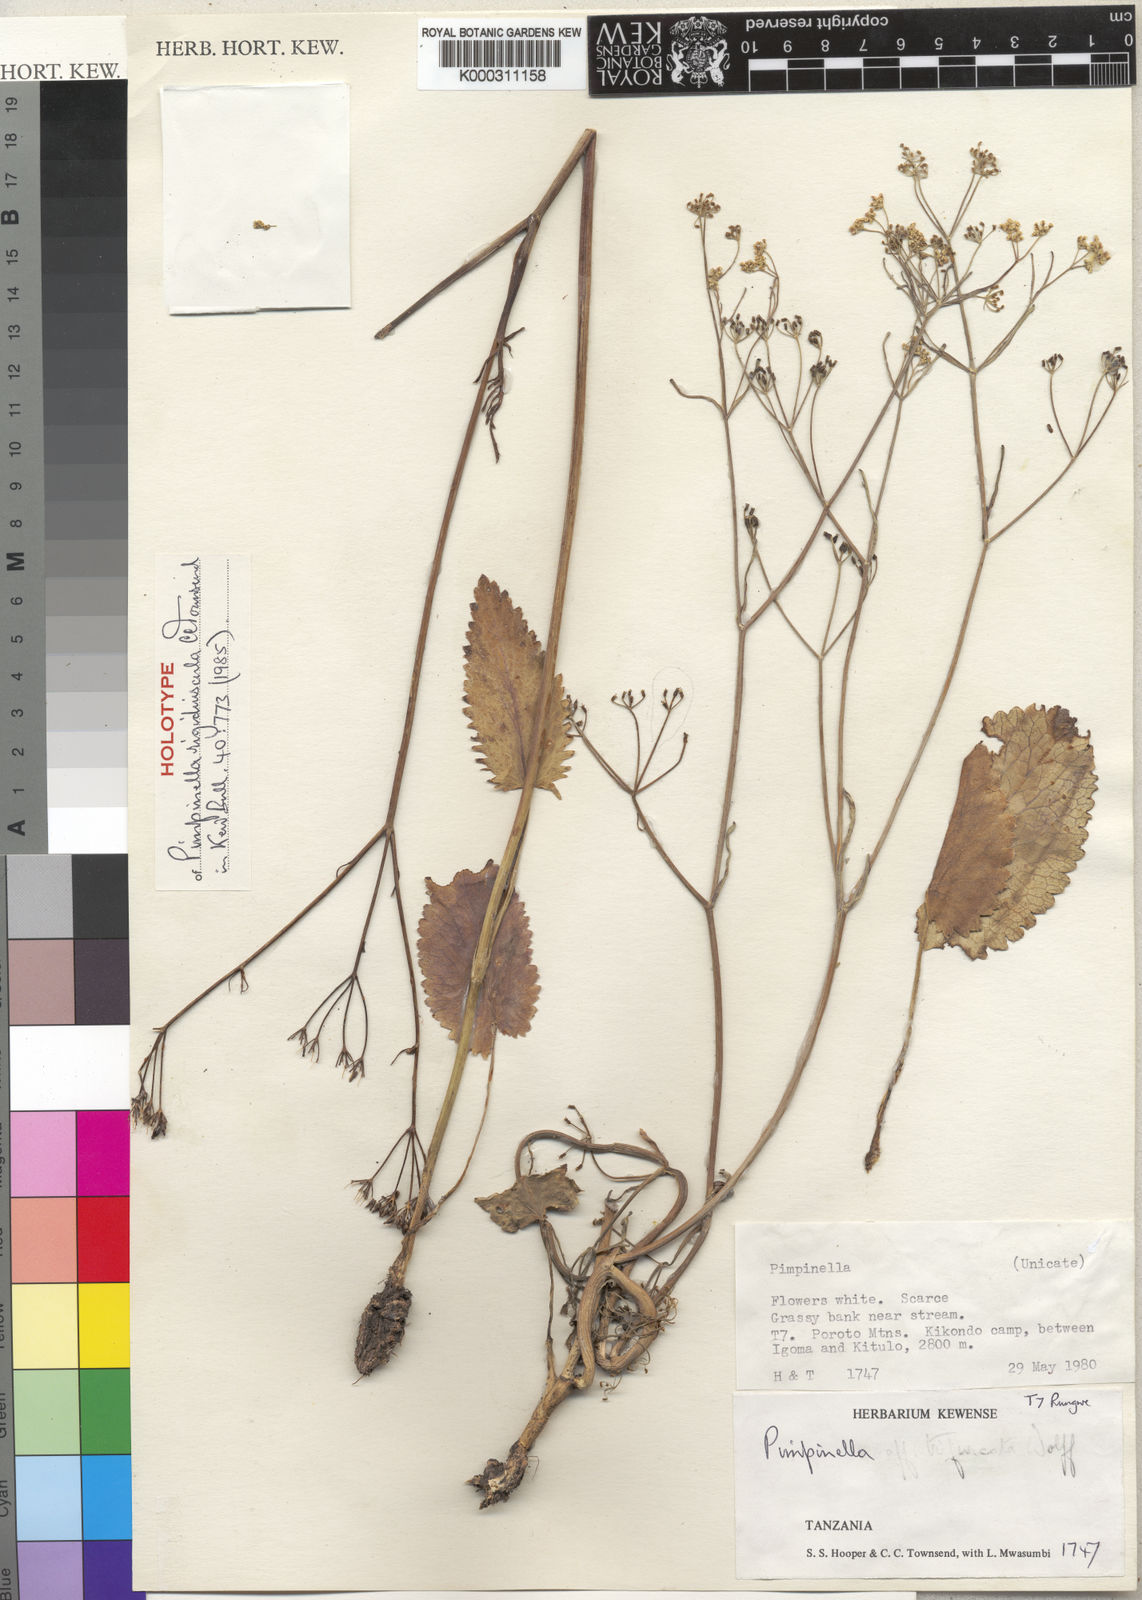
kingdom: Plantae
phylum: Tracheophyta
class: Magnoliopsida
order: Apiales
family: Apiaceae
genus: Pimpinella
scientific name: Pimpinella rigidiuscula
